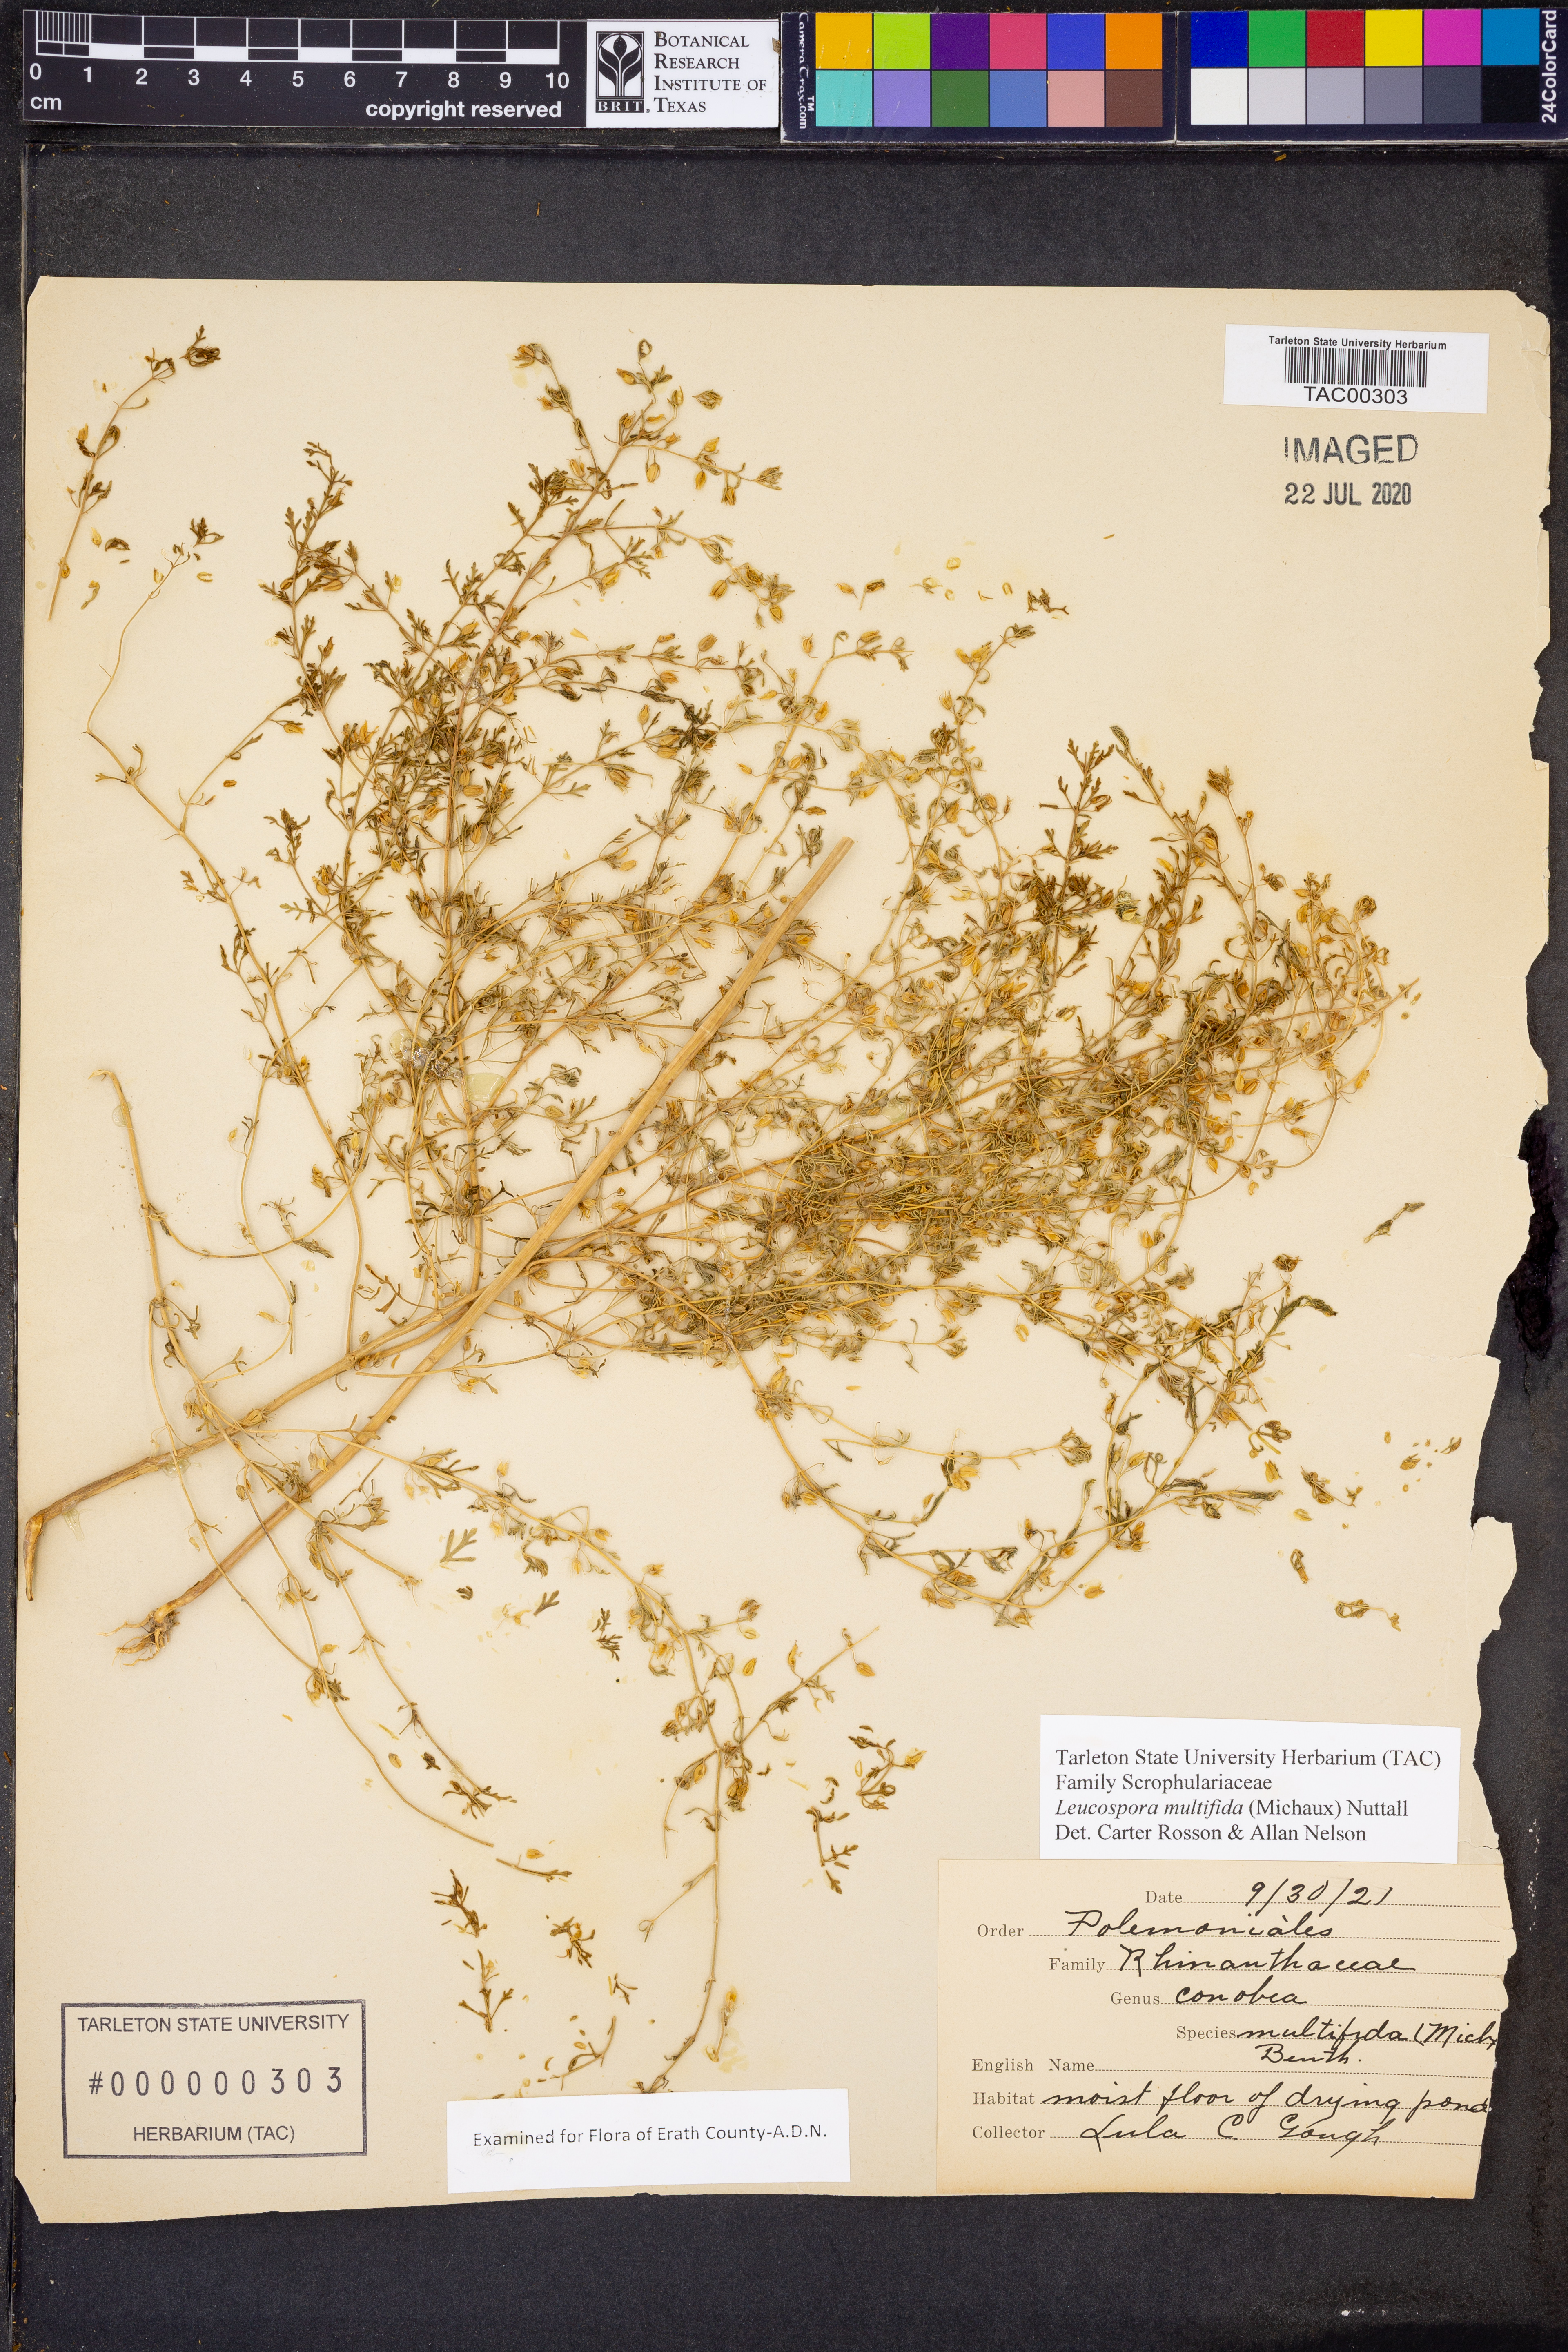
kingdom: Plantae
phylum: Tracheophyta
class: Magnoliopsida
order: Lamiales
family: Plantaginaceae
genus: Leucospora
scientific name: Leucospora multifida
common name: Narrow-leaf paleseed
